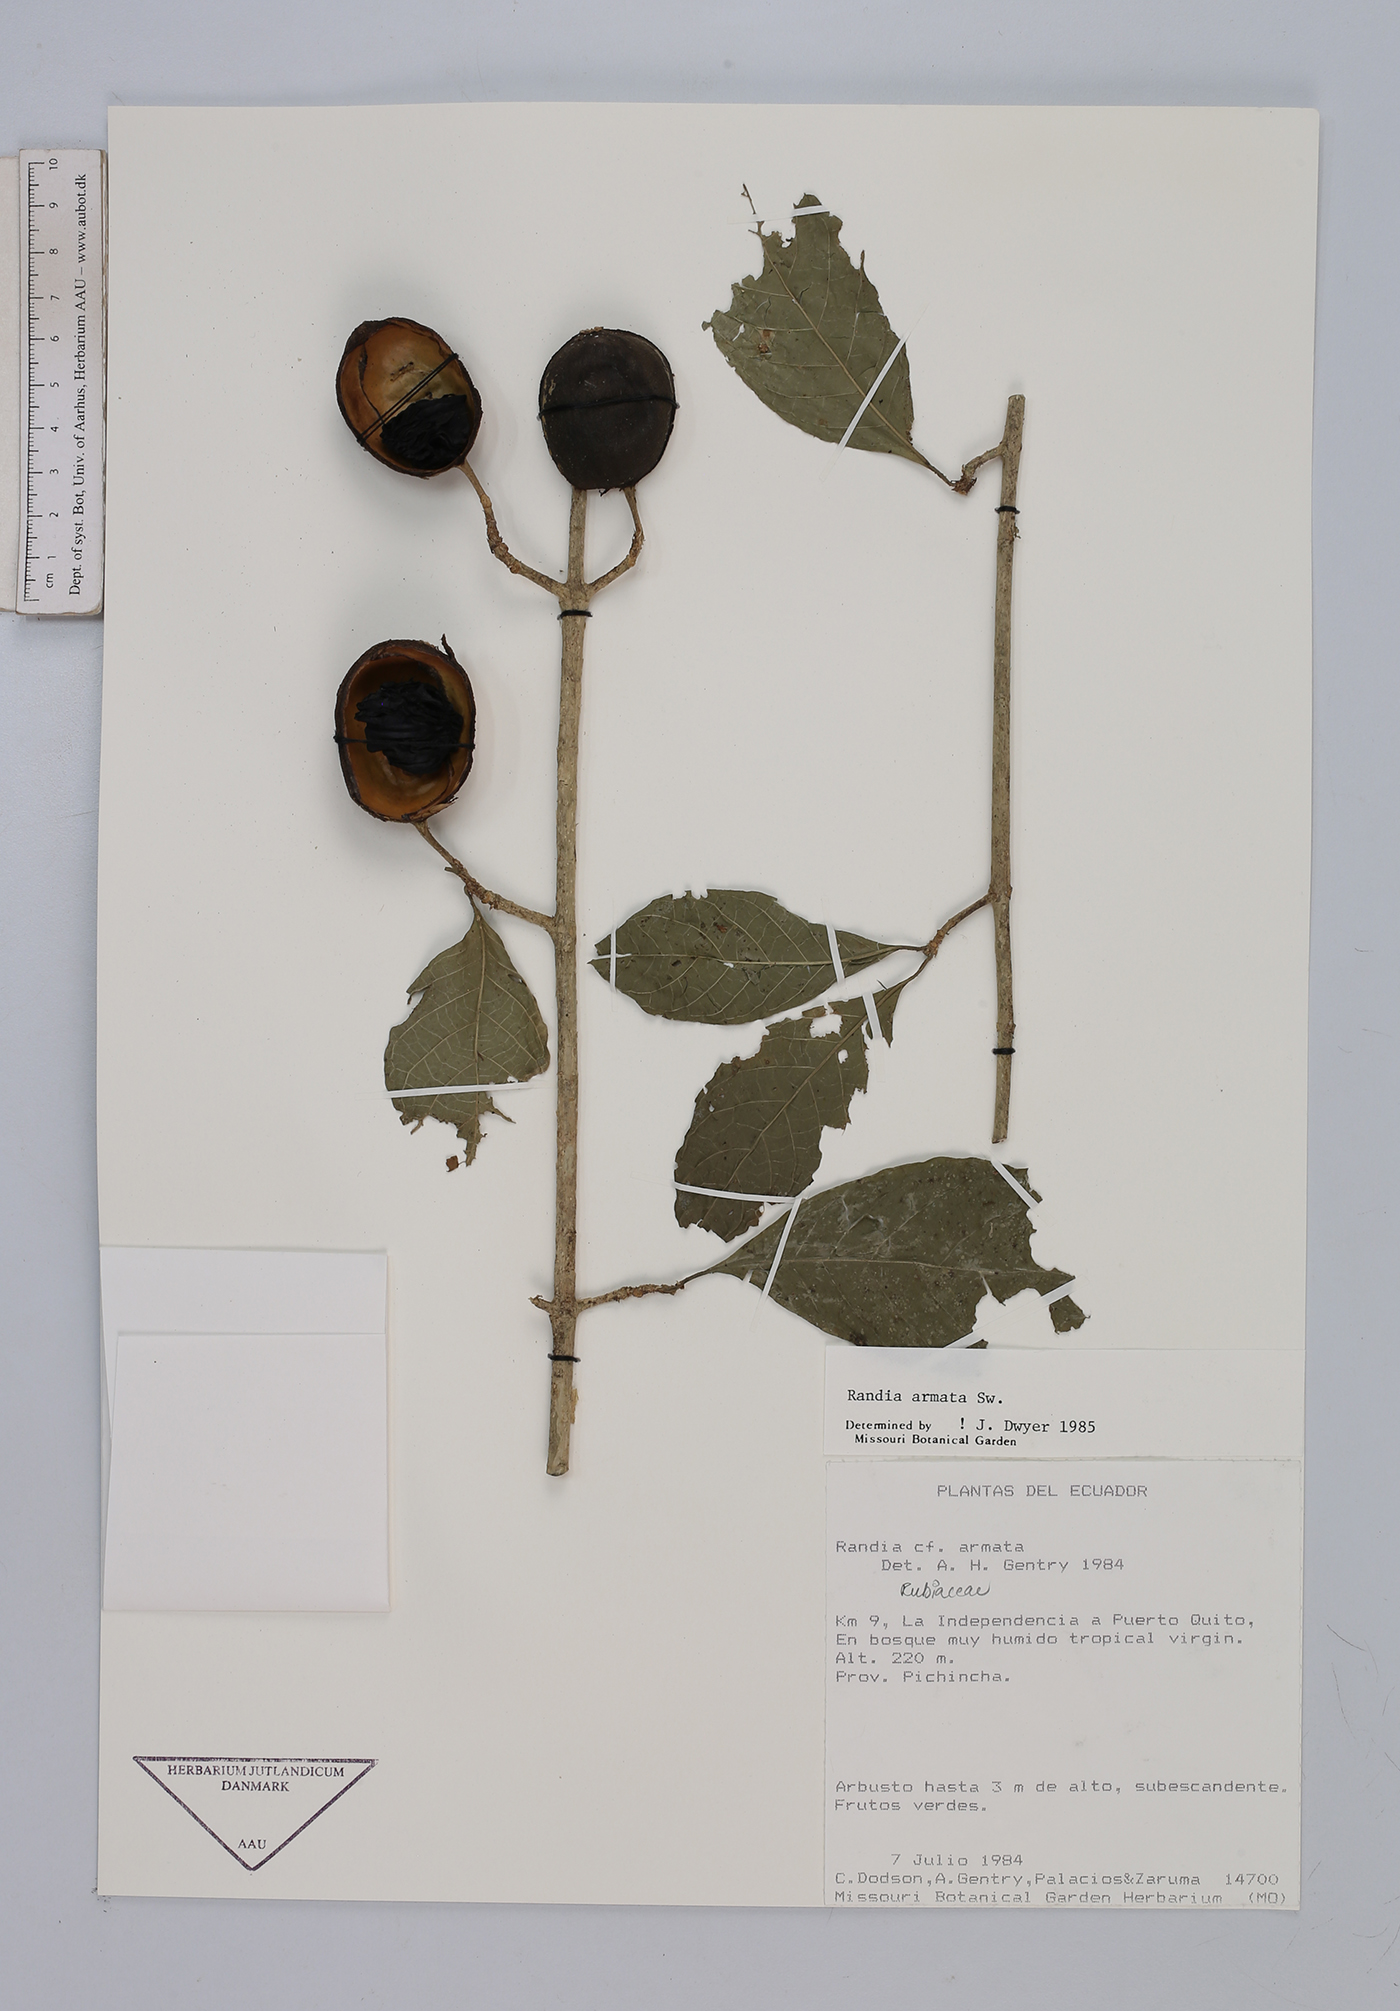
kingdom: Plantae
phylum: Tracheophyta
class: Magnoliopsida
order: Gentianales
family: Rubiaceae
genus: Randia
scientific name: Randia armata
